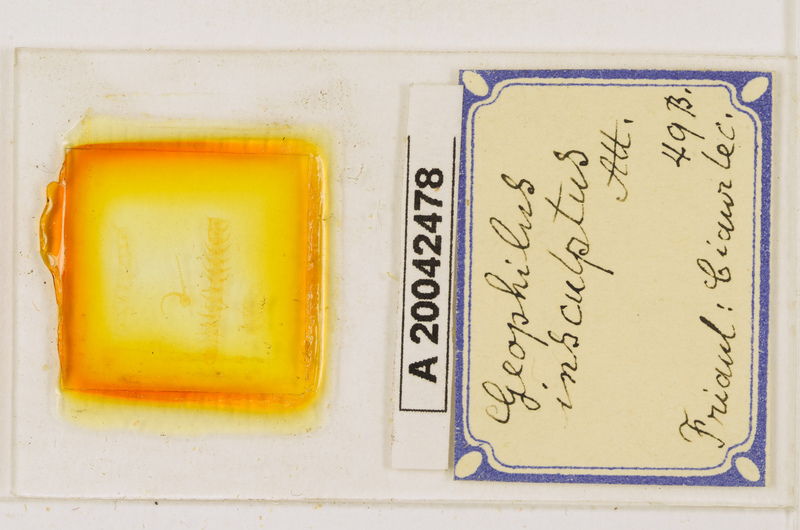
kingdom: Animalia
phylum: Arthropoda
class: Chilopoda
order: Geophilomorpha
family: Geophilidae
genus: Geophilus
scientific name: Geophilus insculptus
